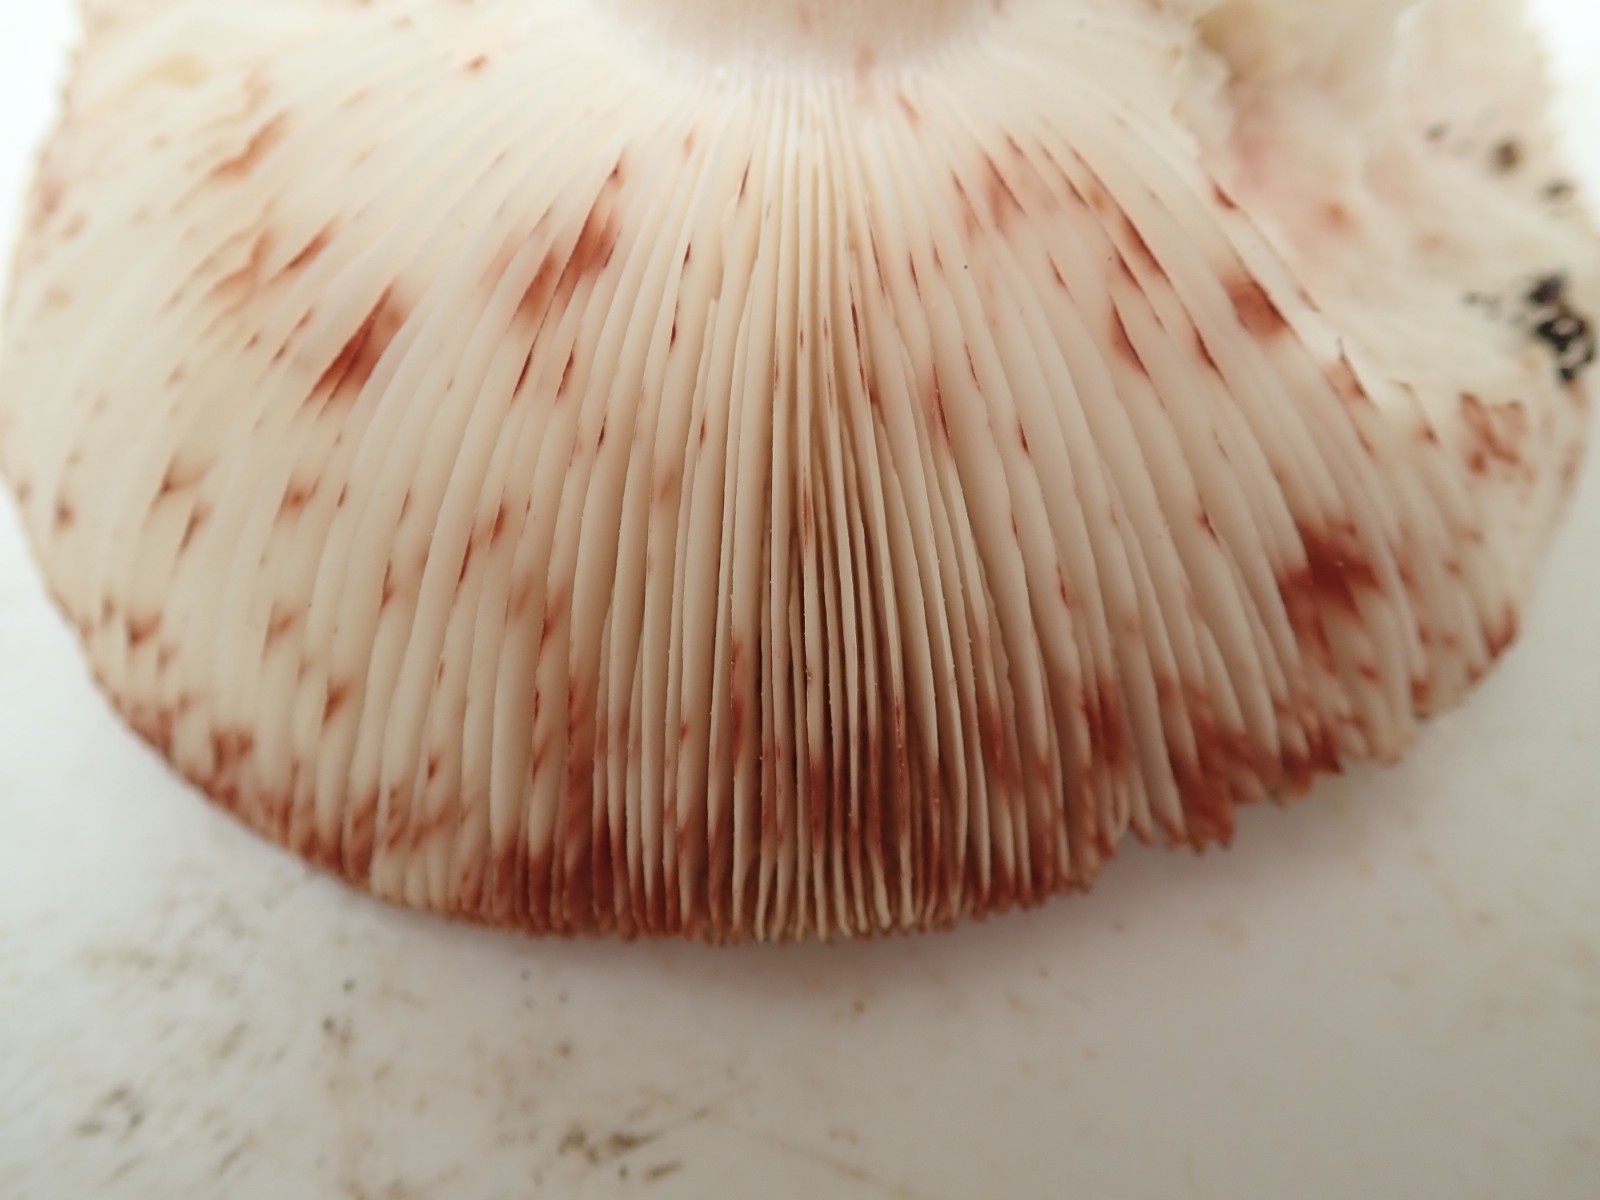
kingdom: Fungi
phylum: Basidiomycota
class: Agaricomycetes
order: Agaricales
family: Amanitaceae
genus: Amanita
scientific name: Amanita rubescens
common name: rødmende fluesvamp
